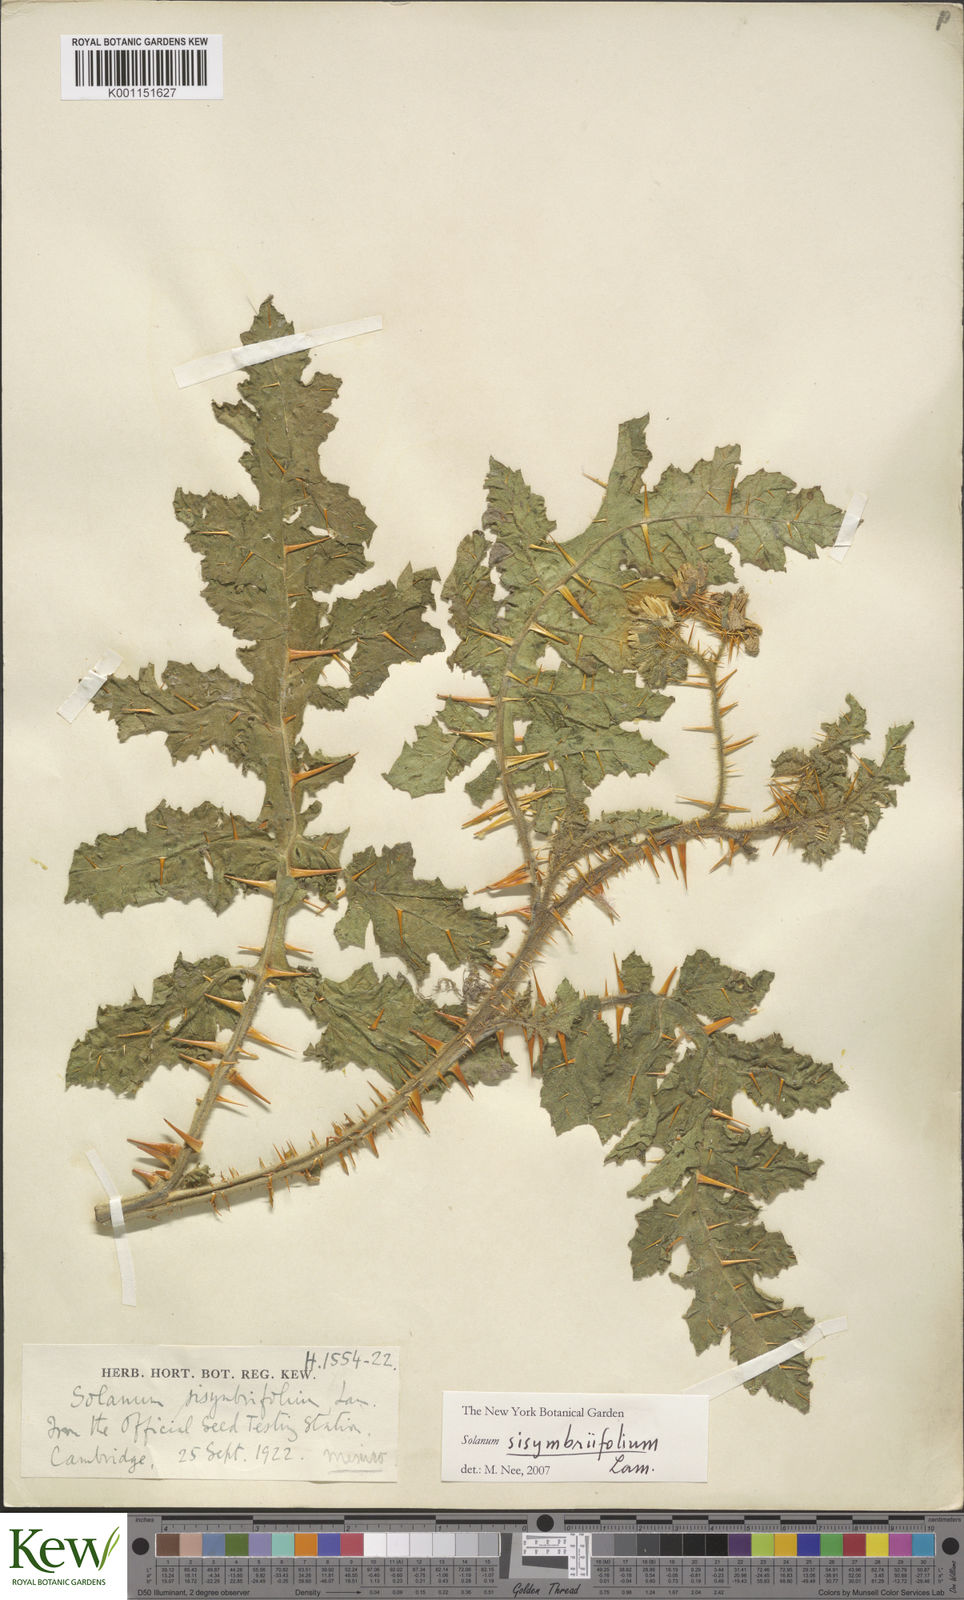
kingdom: Plantae
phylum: Tracheophyta
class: Magnoliopsida
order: Solanales
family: Solanaceae
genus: Solanum
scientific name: Solanum sisymbriifolium
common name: Red buffalo-bur
